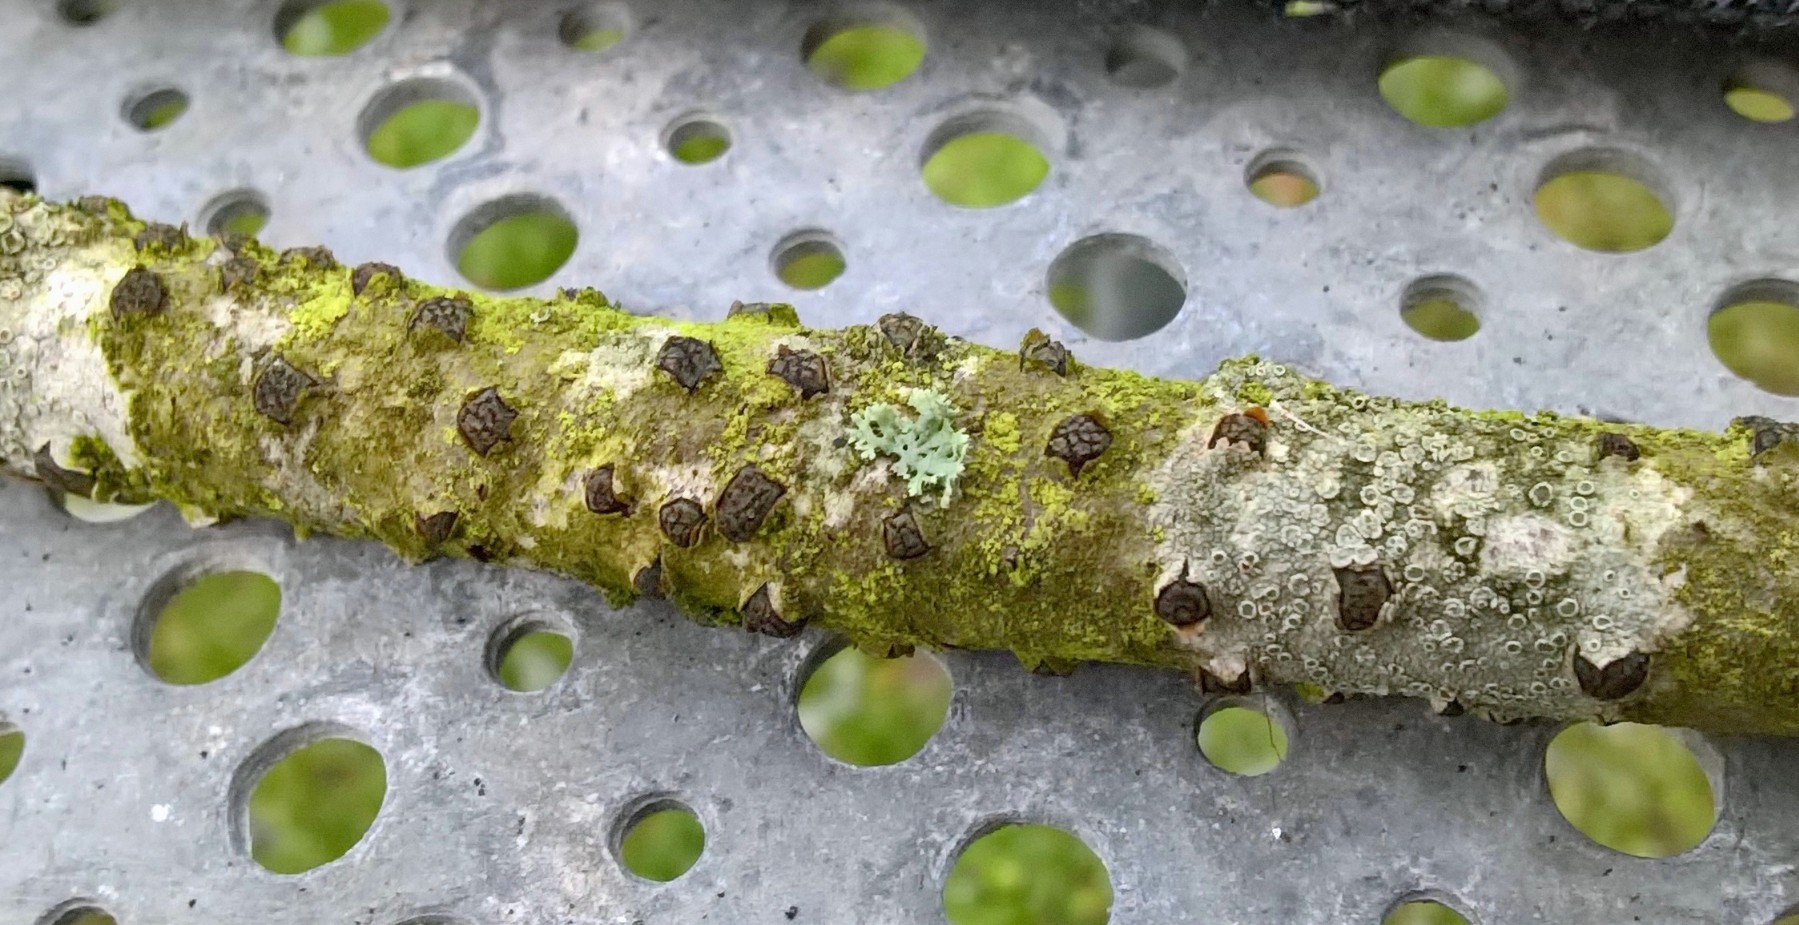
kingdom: Fungi
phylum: Ascomycota
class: Sordariomycetes
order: Xylariales
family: Diatrypaceae
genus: Diatrypella
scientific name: Diatrypella quercina
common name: ege-kulskorpe
